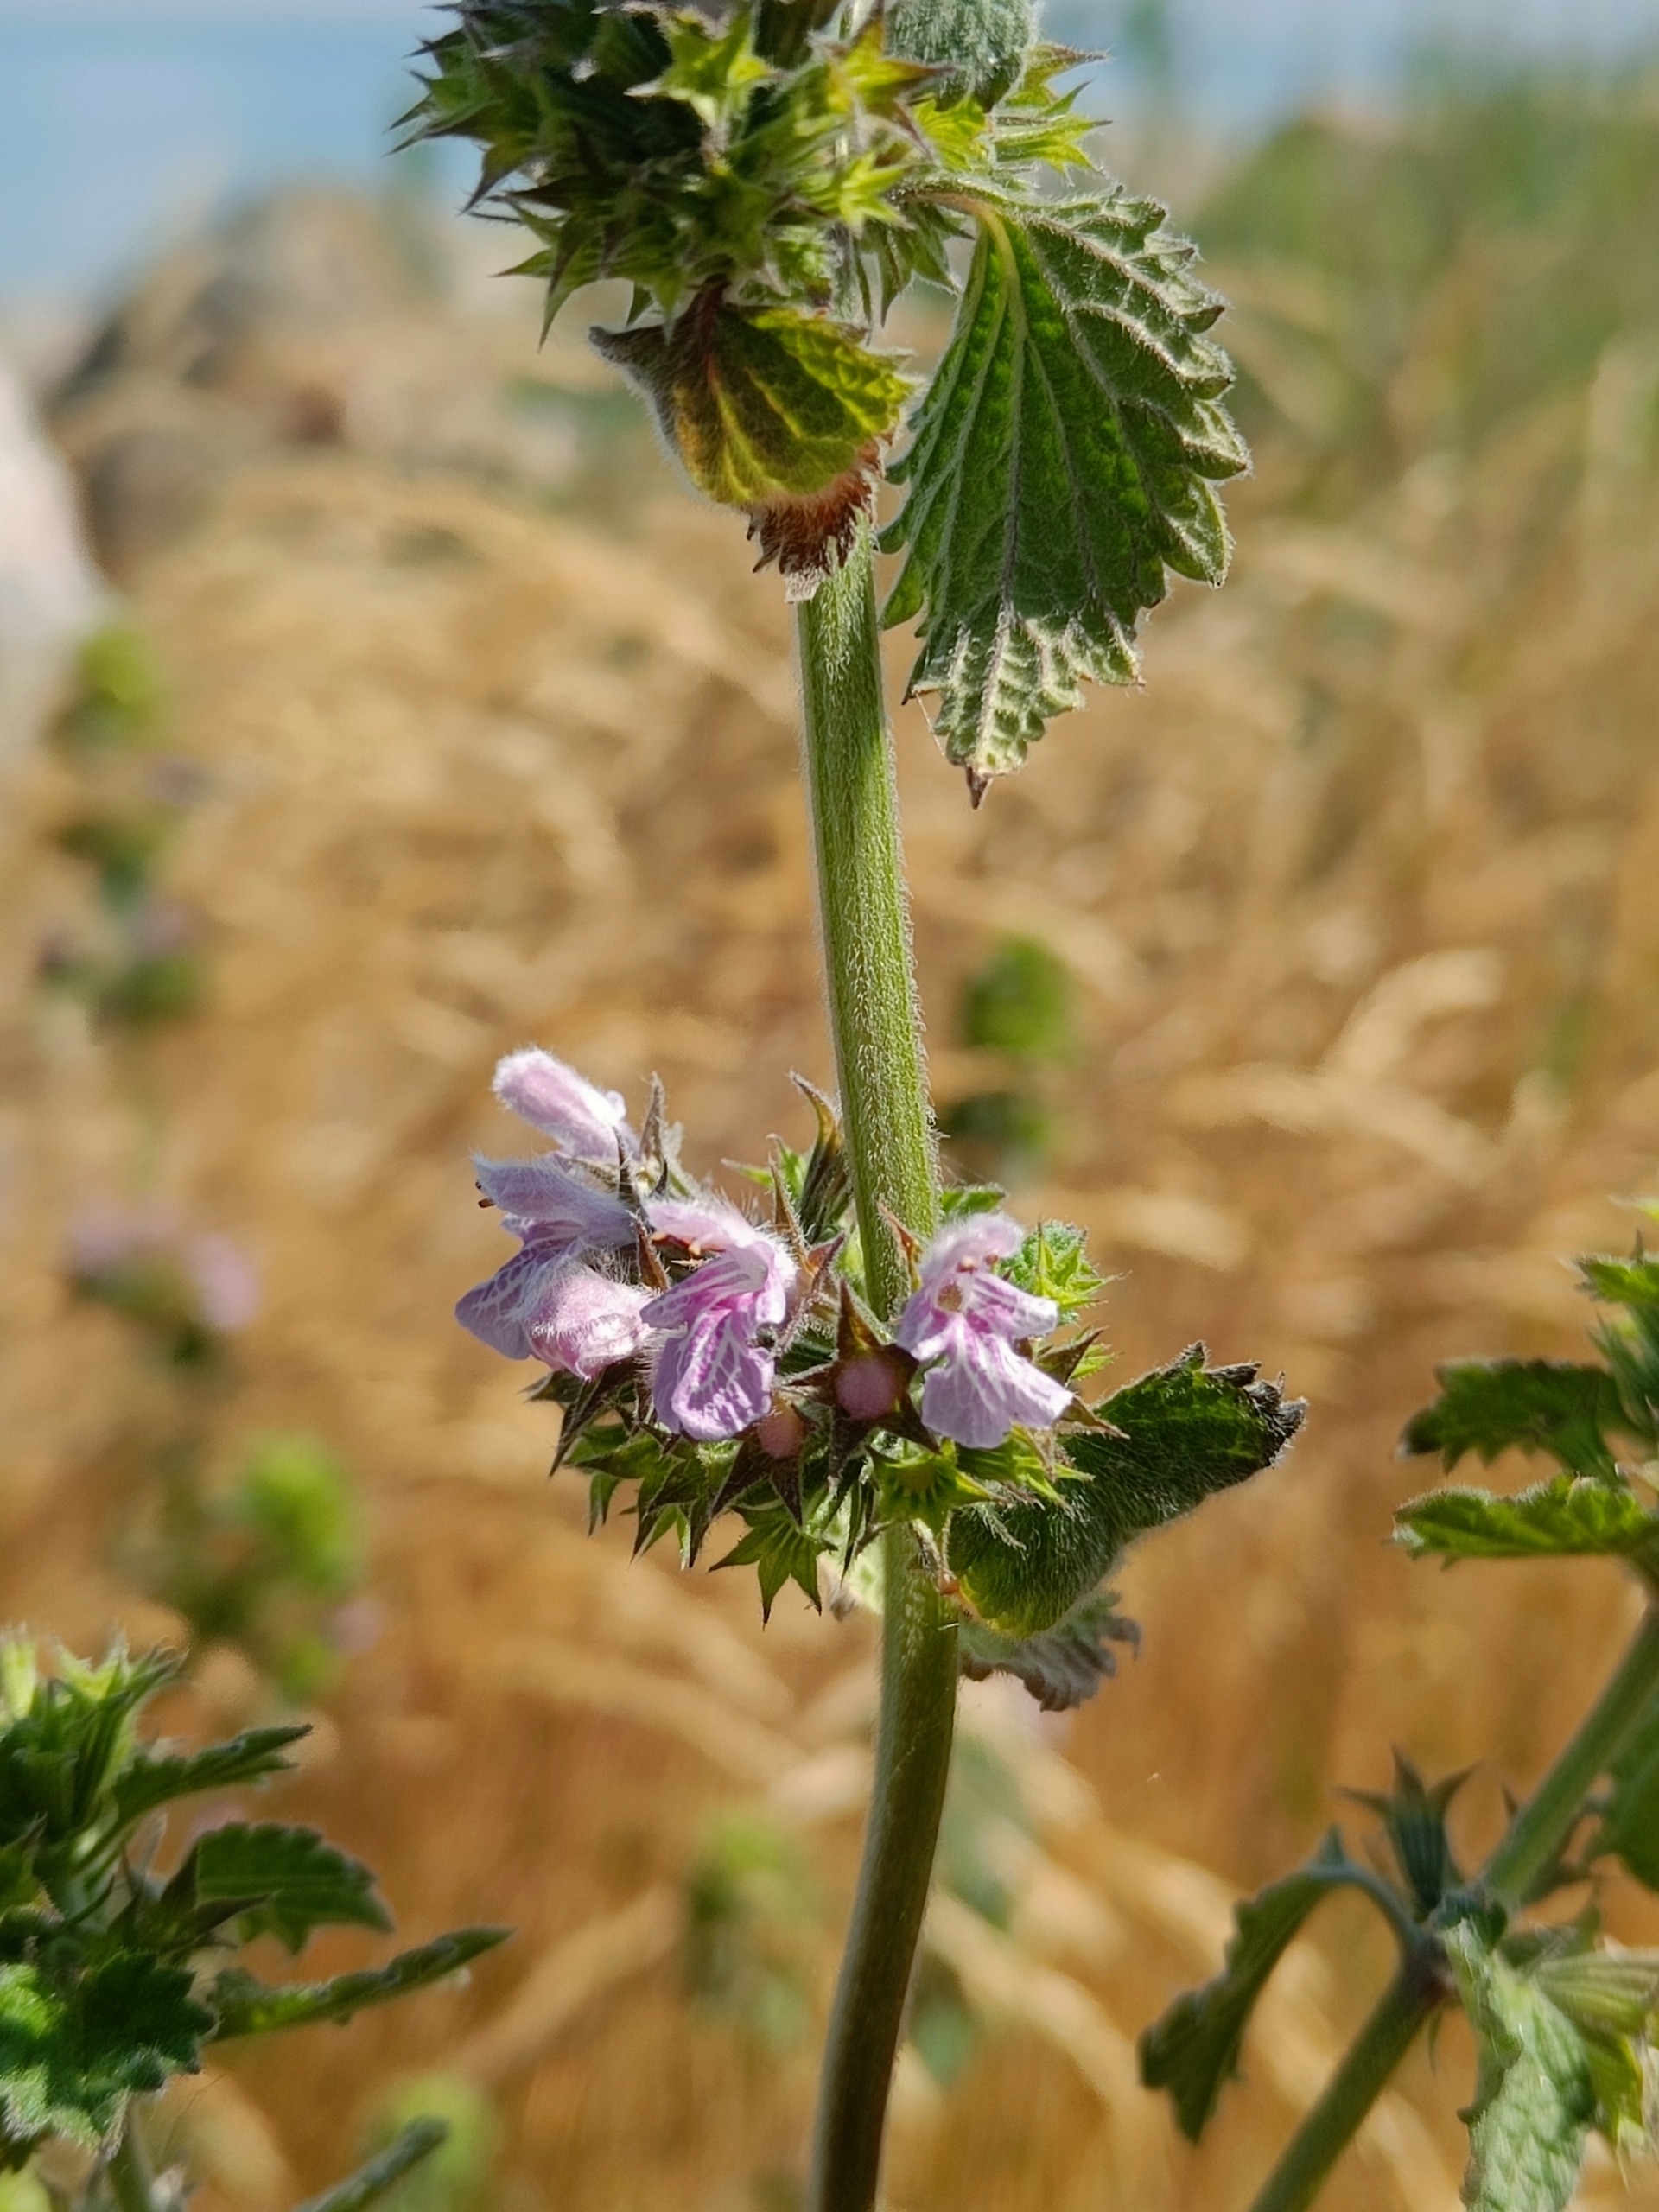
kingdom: Plantae
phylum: Tracheophyta
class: Magnoliopsida
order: Lamiales
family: Lamiaceae
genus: Ballota
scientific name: Ballota nigra
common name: Tandbæger
